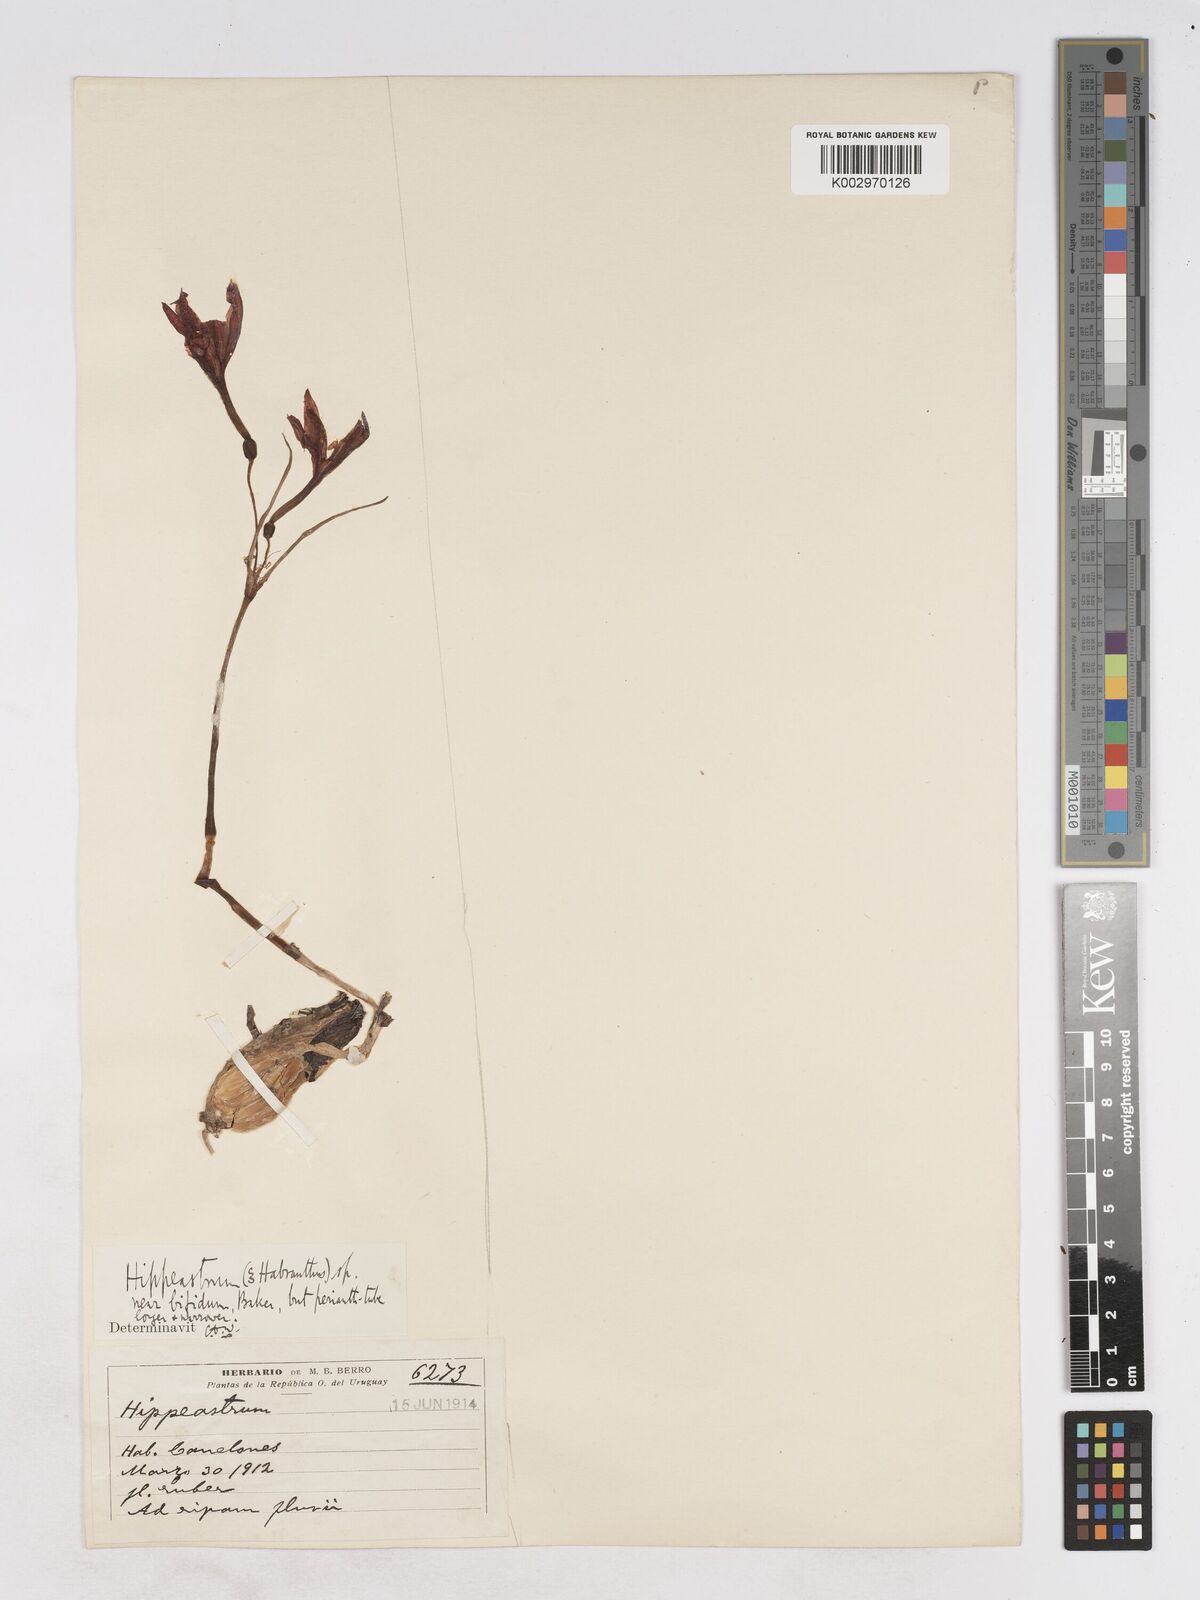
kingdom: Plantae
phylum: Tracheophyta
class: Liliopsida
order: Asparagales
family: Amaryllidaceae
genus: Zephyranthes
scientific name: Zephyranthes bifida
